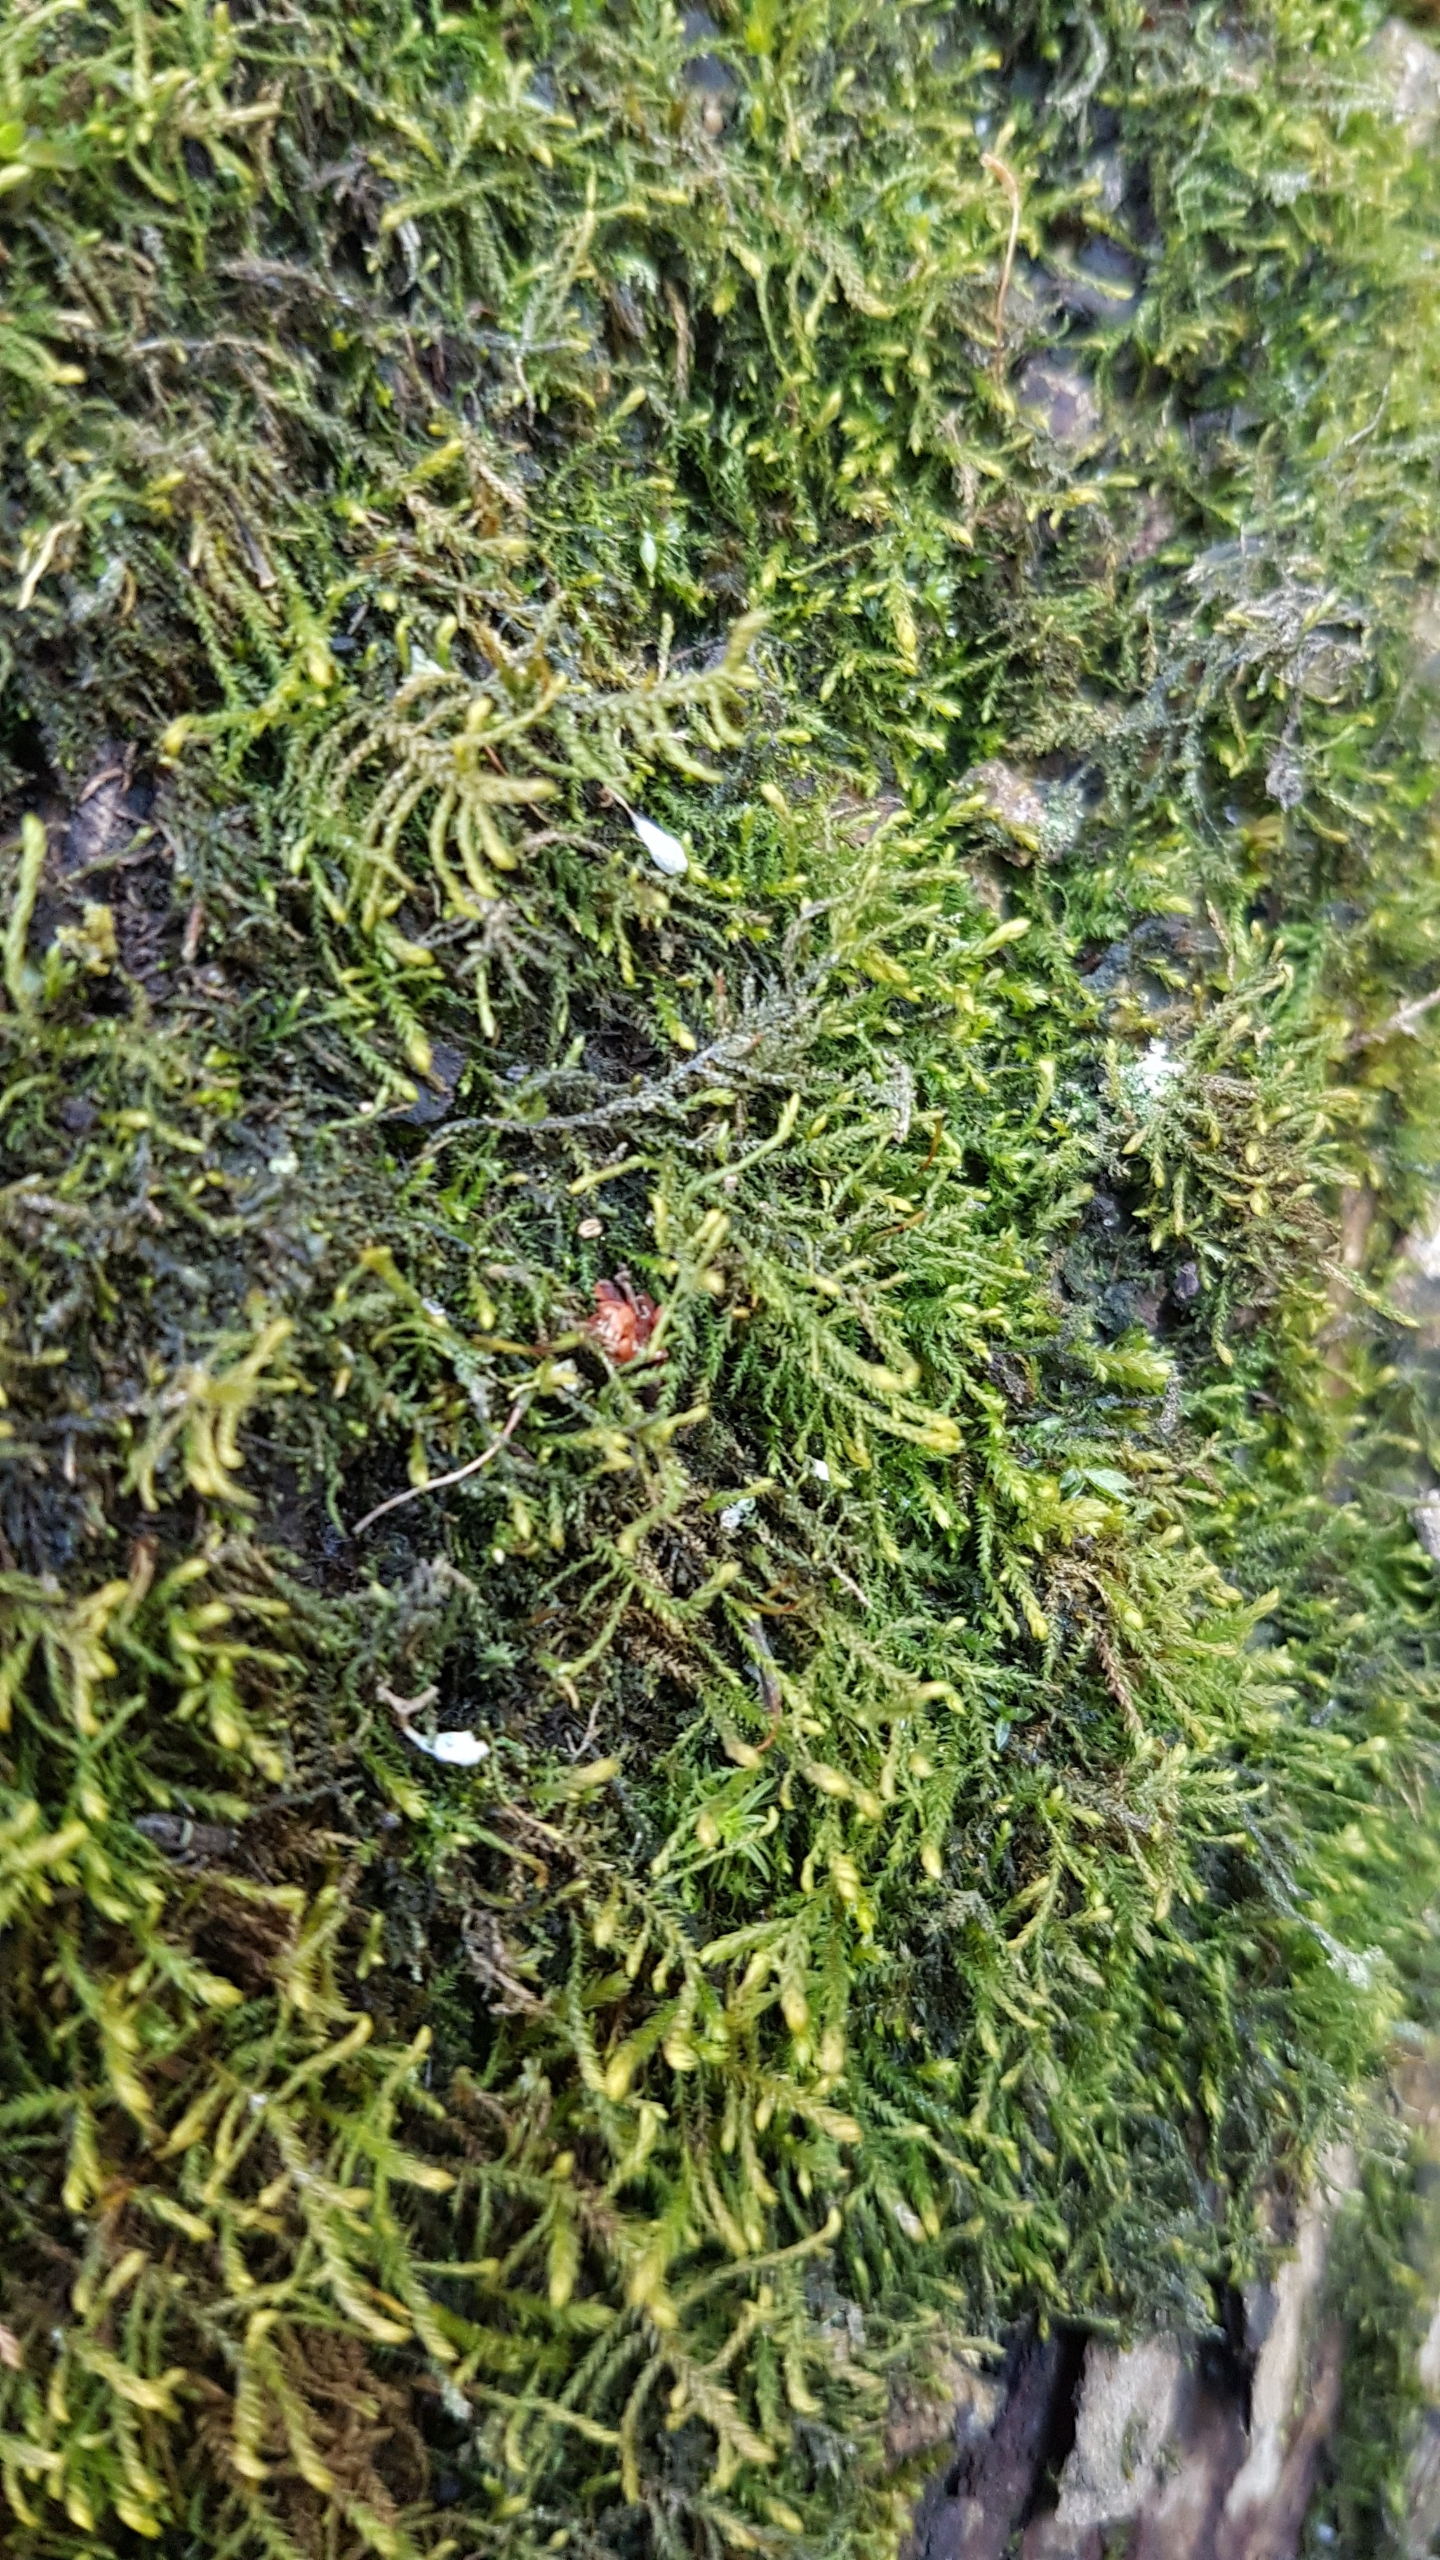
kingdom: Plantae
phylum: Bryophyta
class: Bryopsida
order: Hypnales
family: Leskeaceae
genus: Leskea
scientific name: Leskea polycarpa
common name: Mat lærkemos
